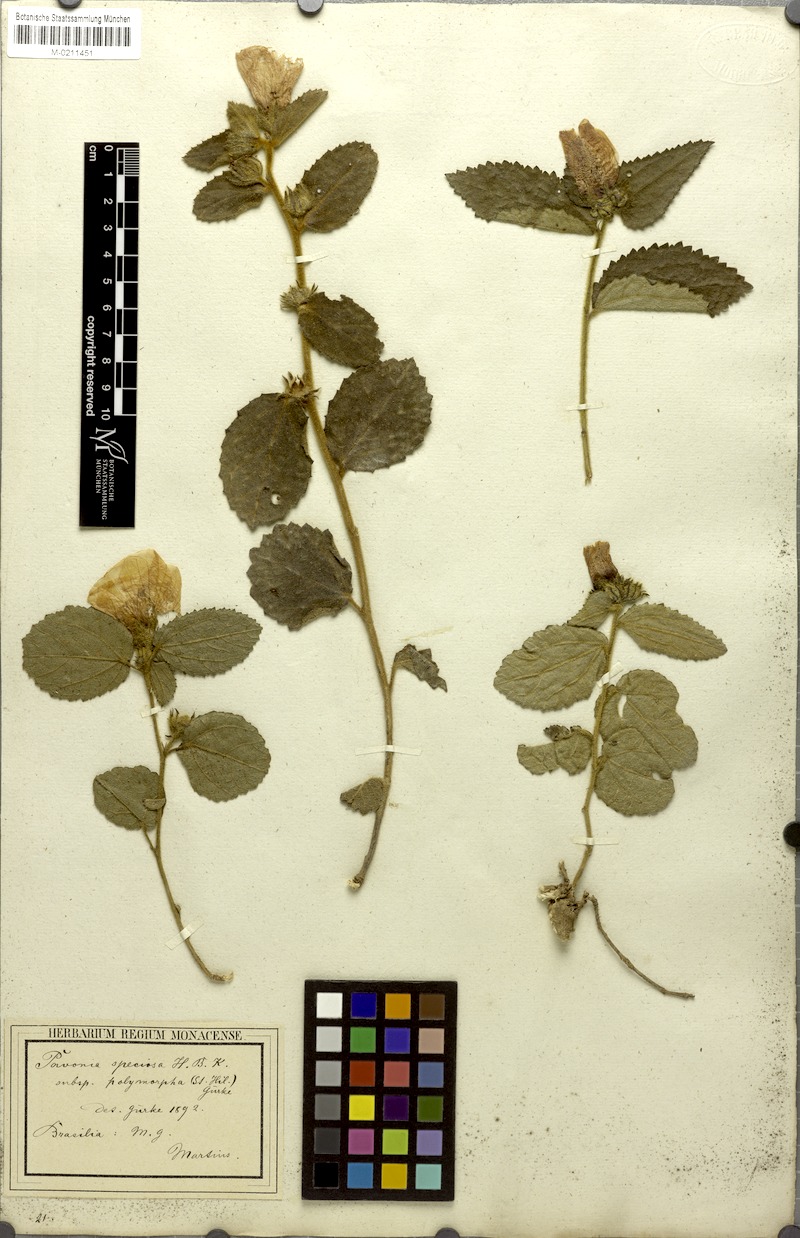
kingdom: Plantae
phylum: Tracheophyta
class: Magnoliopsida
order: Malvales
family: Malvaceae
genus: Peltaea
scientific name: Peltaea polymorpha
